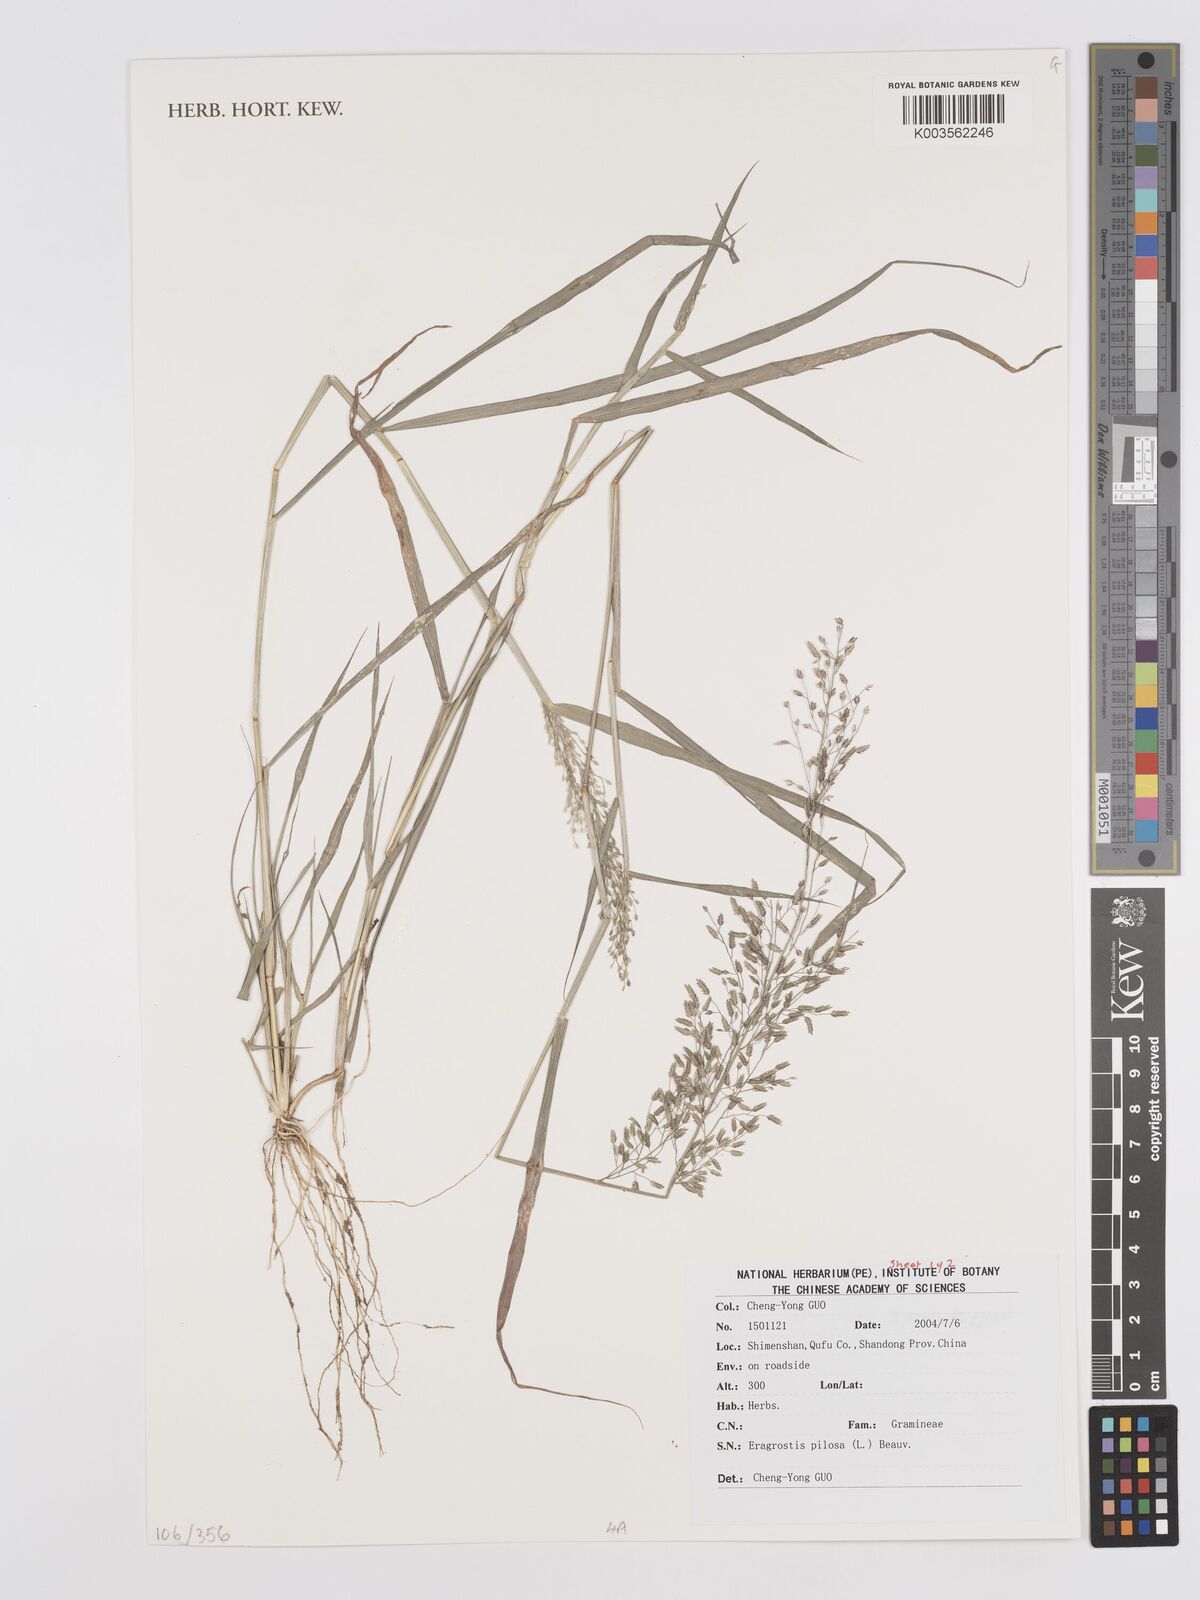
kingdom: Plantae
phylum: Tracheophyta
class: Liliopsida
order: Poales
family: Poaceae
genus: Eragrostis
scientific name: Eragrostis pilosa
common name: Indian lovegrass
